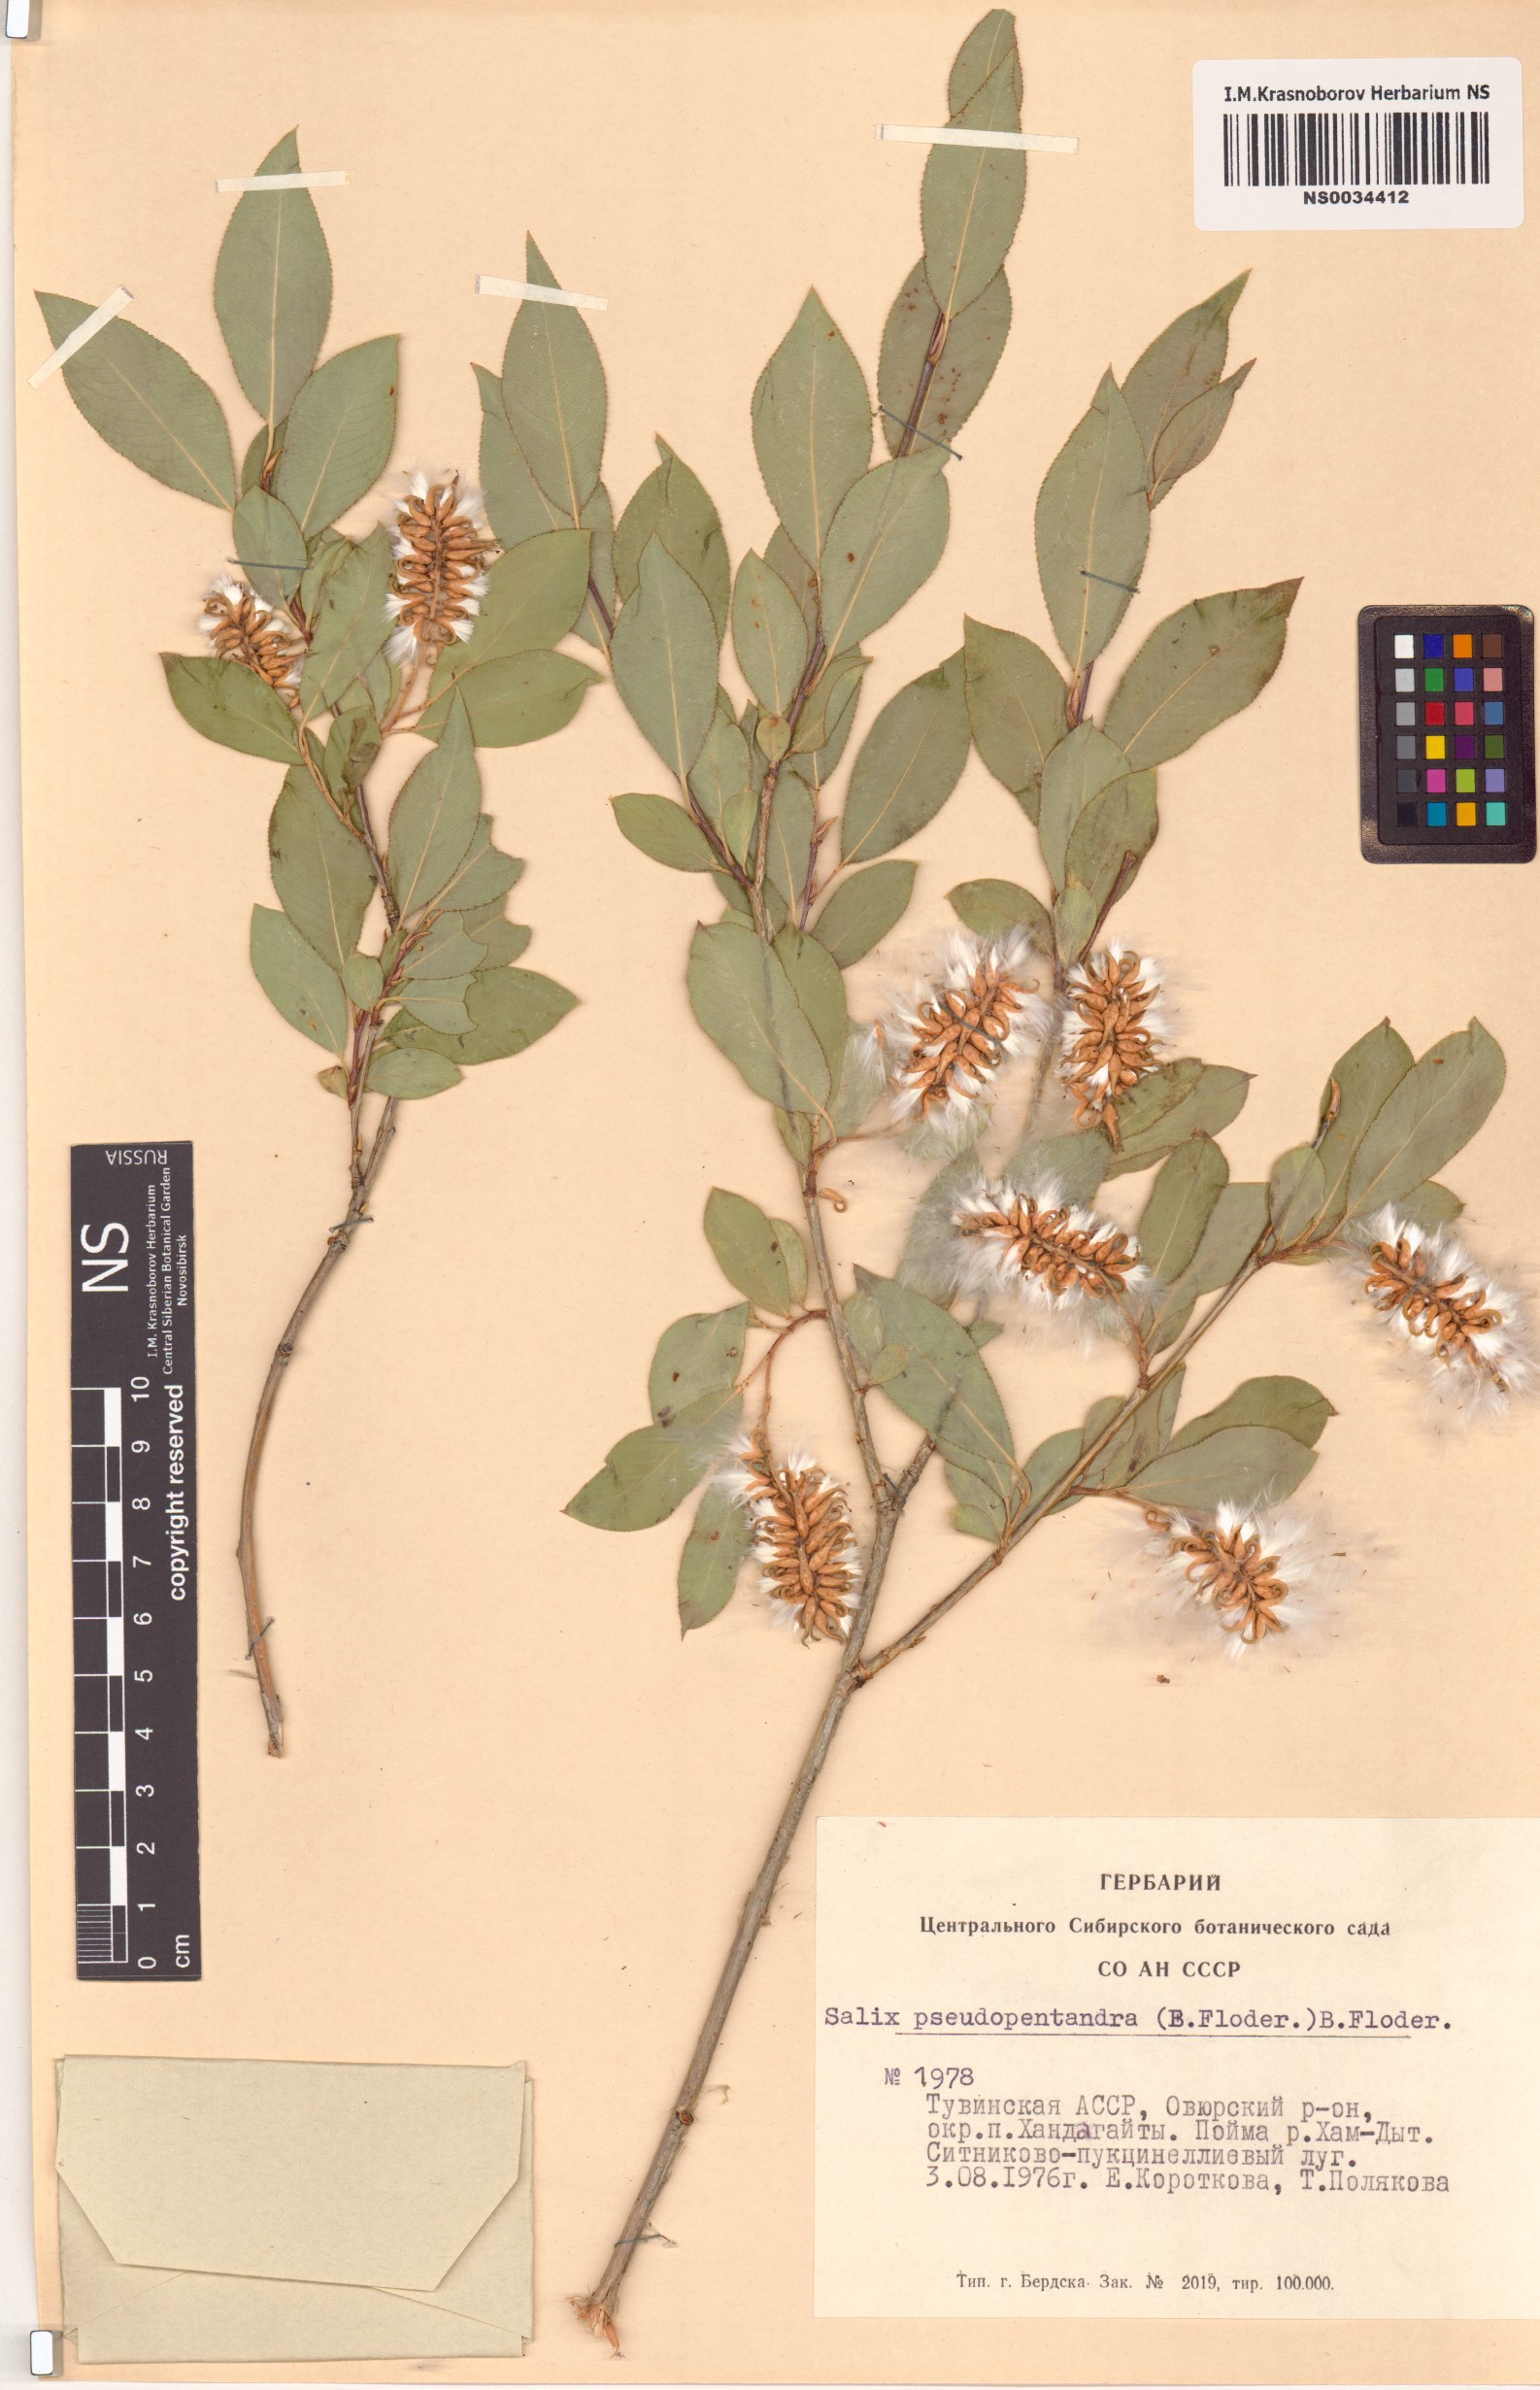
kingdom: Plantae
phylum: Tracheophyta
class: Magnoliopsida
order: Malpighiales
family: Salicaceae
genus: Salix
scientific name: Salix pseudopentandra
